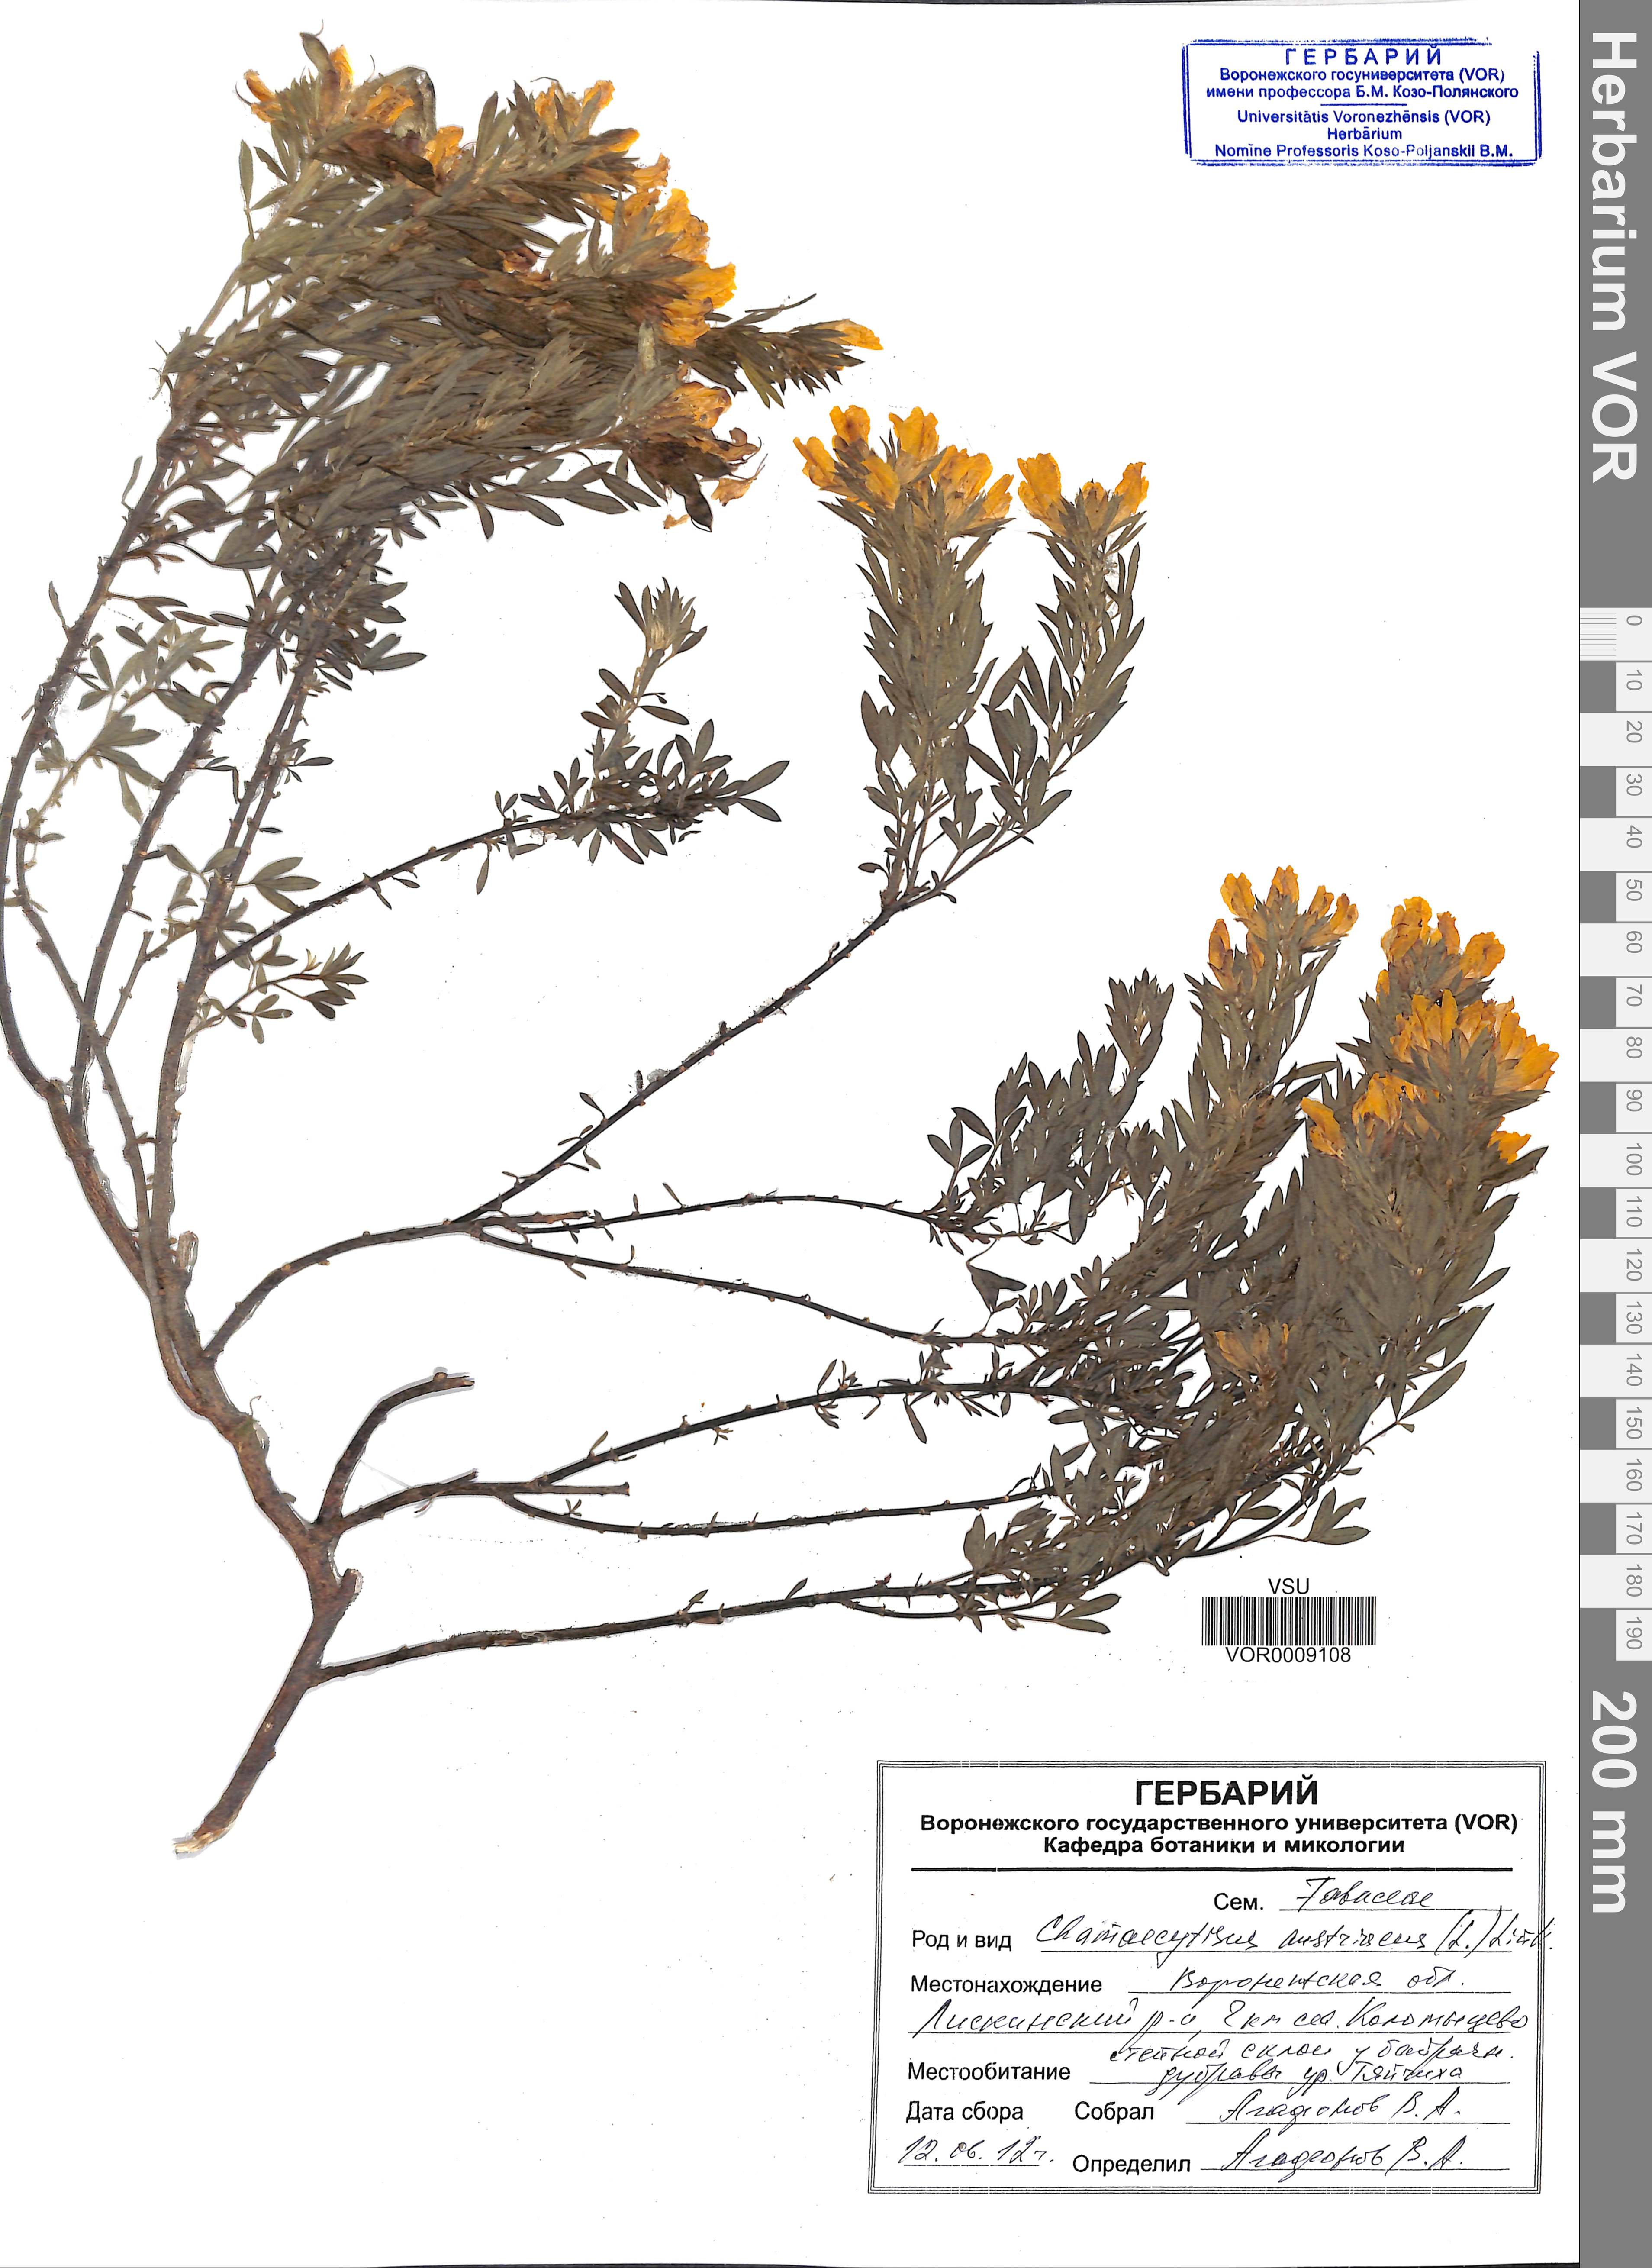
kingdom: Plantae
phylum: Tracheophyta
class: Magnoliopsida
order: Fabales
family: Fabaceae
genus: Chamaecytisus
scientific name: Chamaecytisus austriacus
